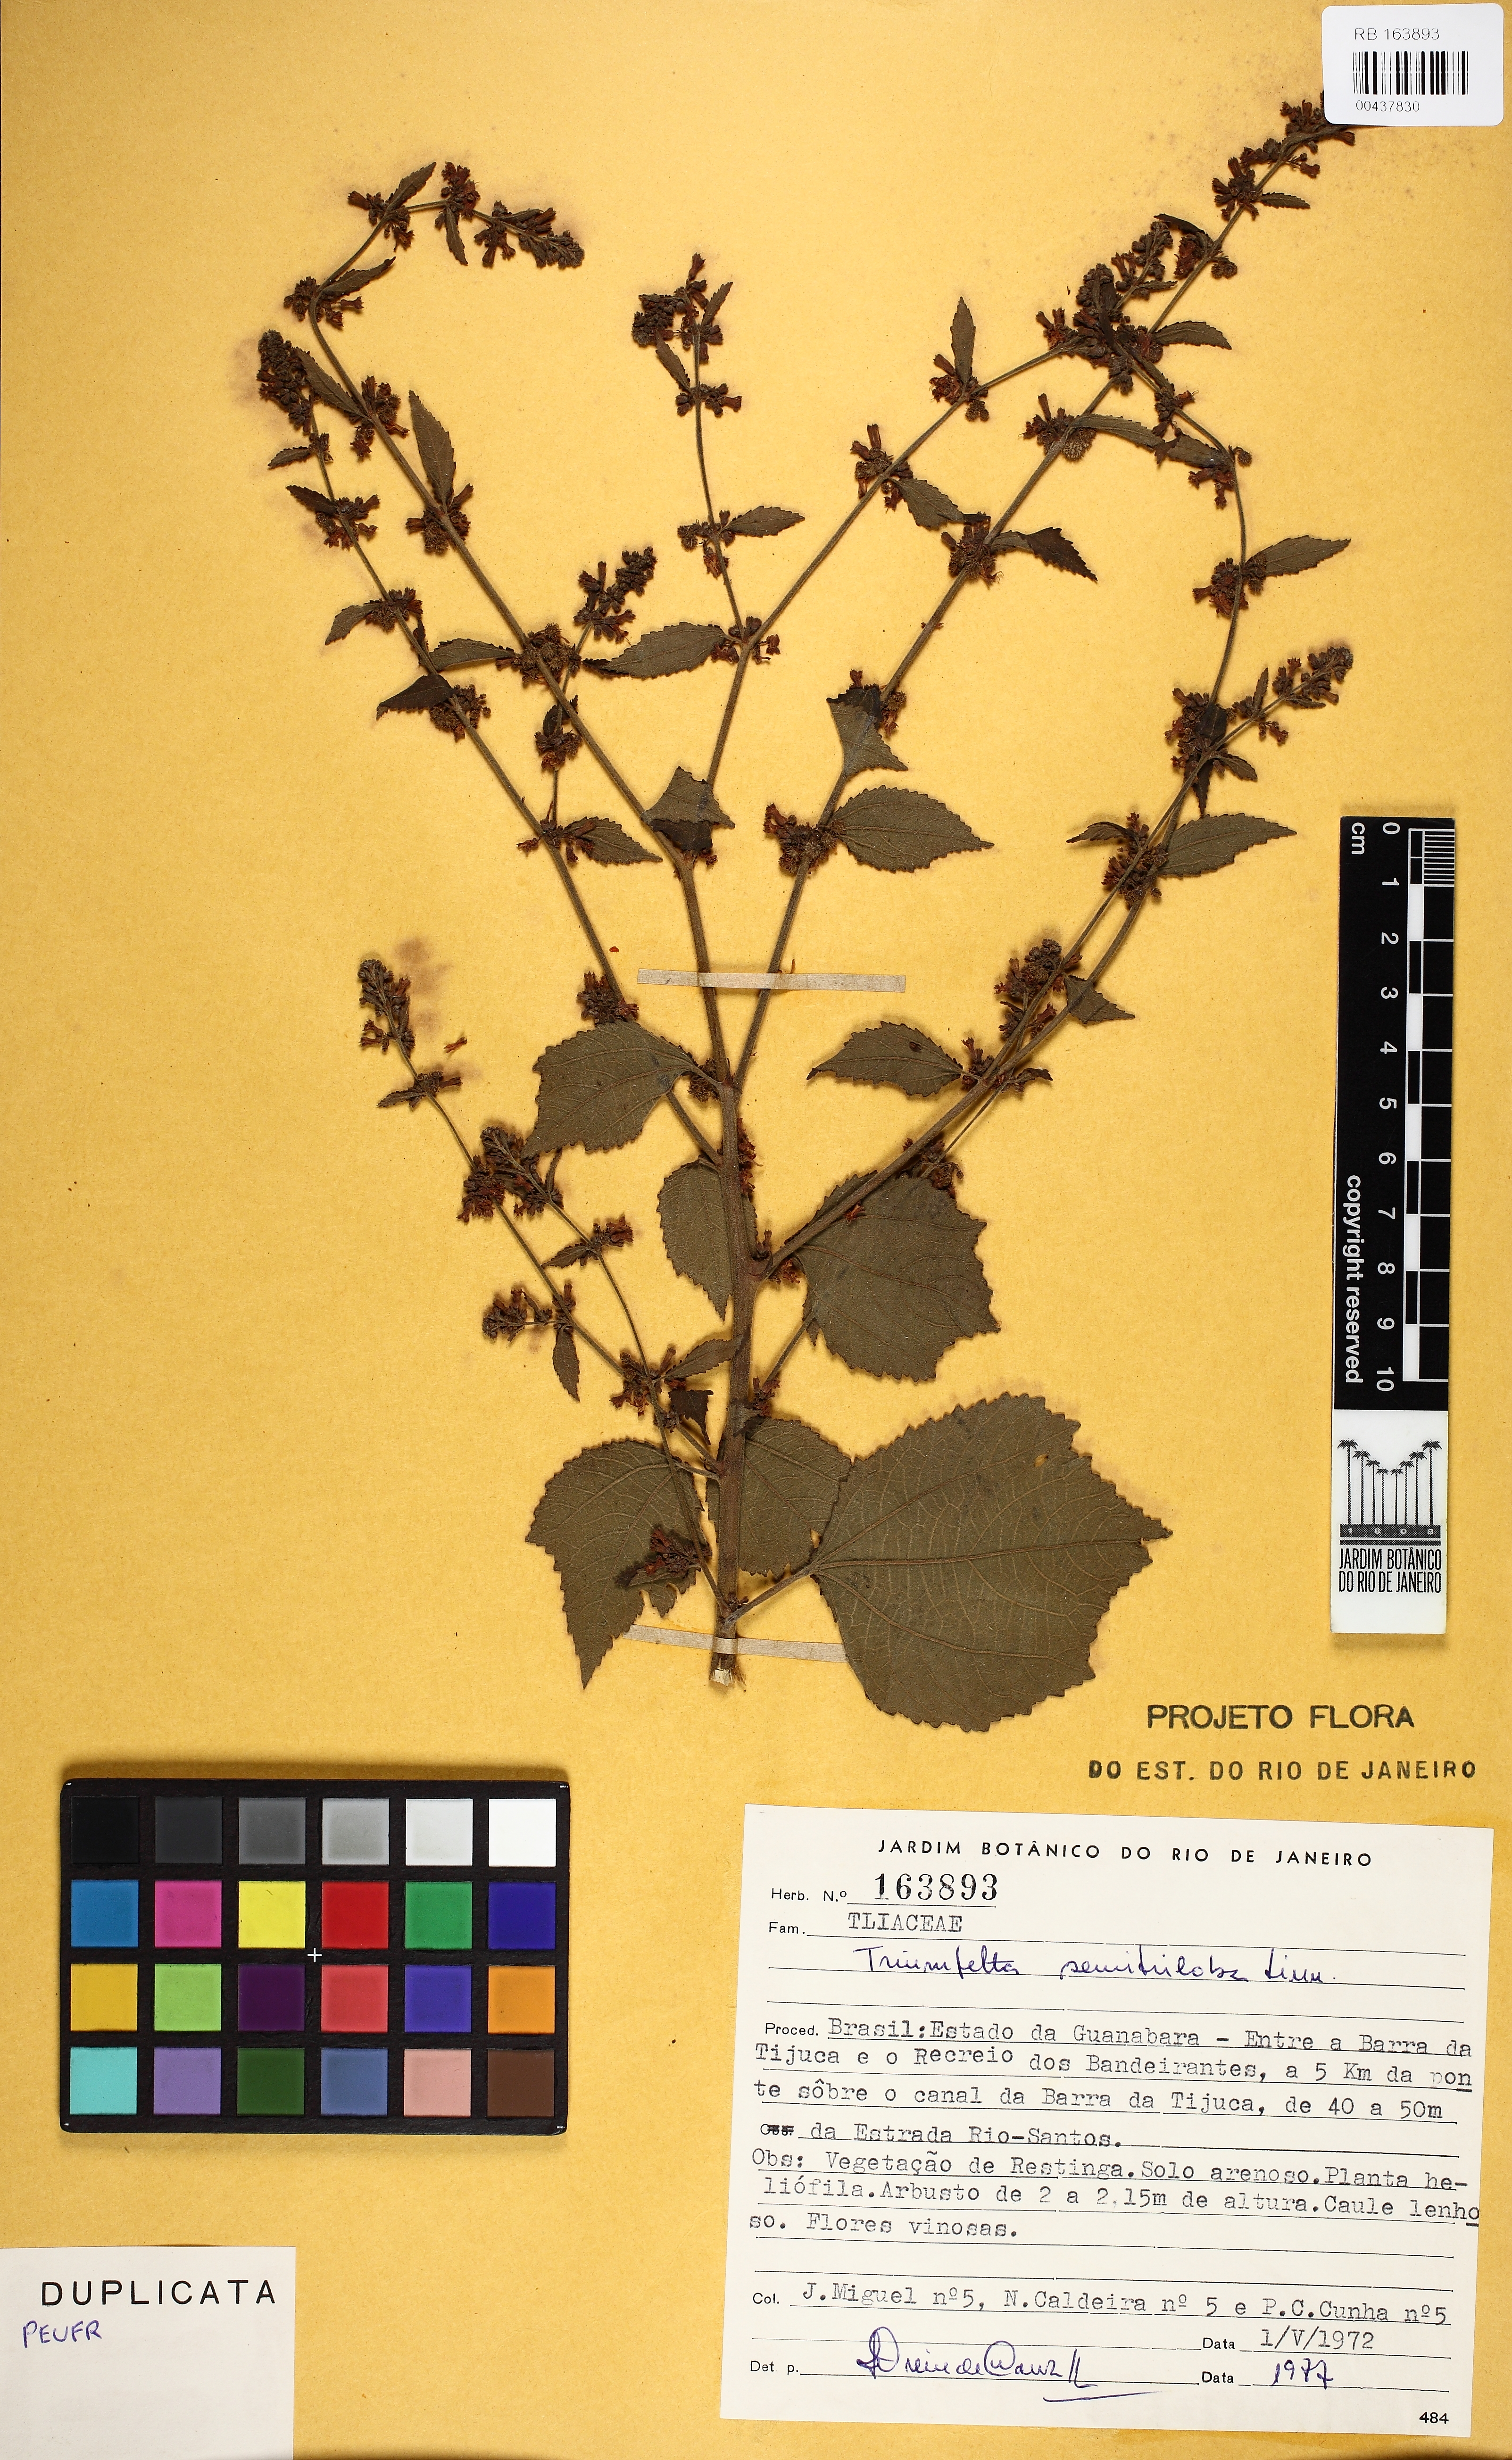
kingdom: Plantae
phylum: Tracheophyta
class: Magnoliopsida
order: Malvales
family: Malvaceae
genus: Triumfetta
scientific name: Triumfetta semitriloba
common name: Sacramento burbark
